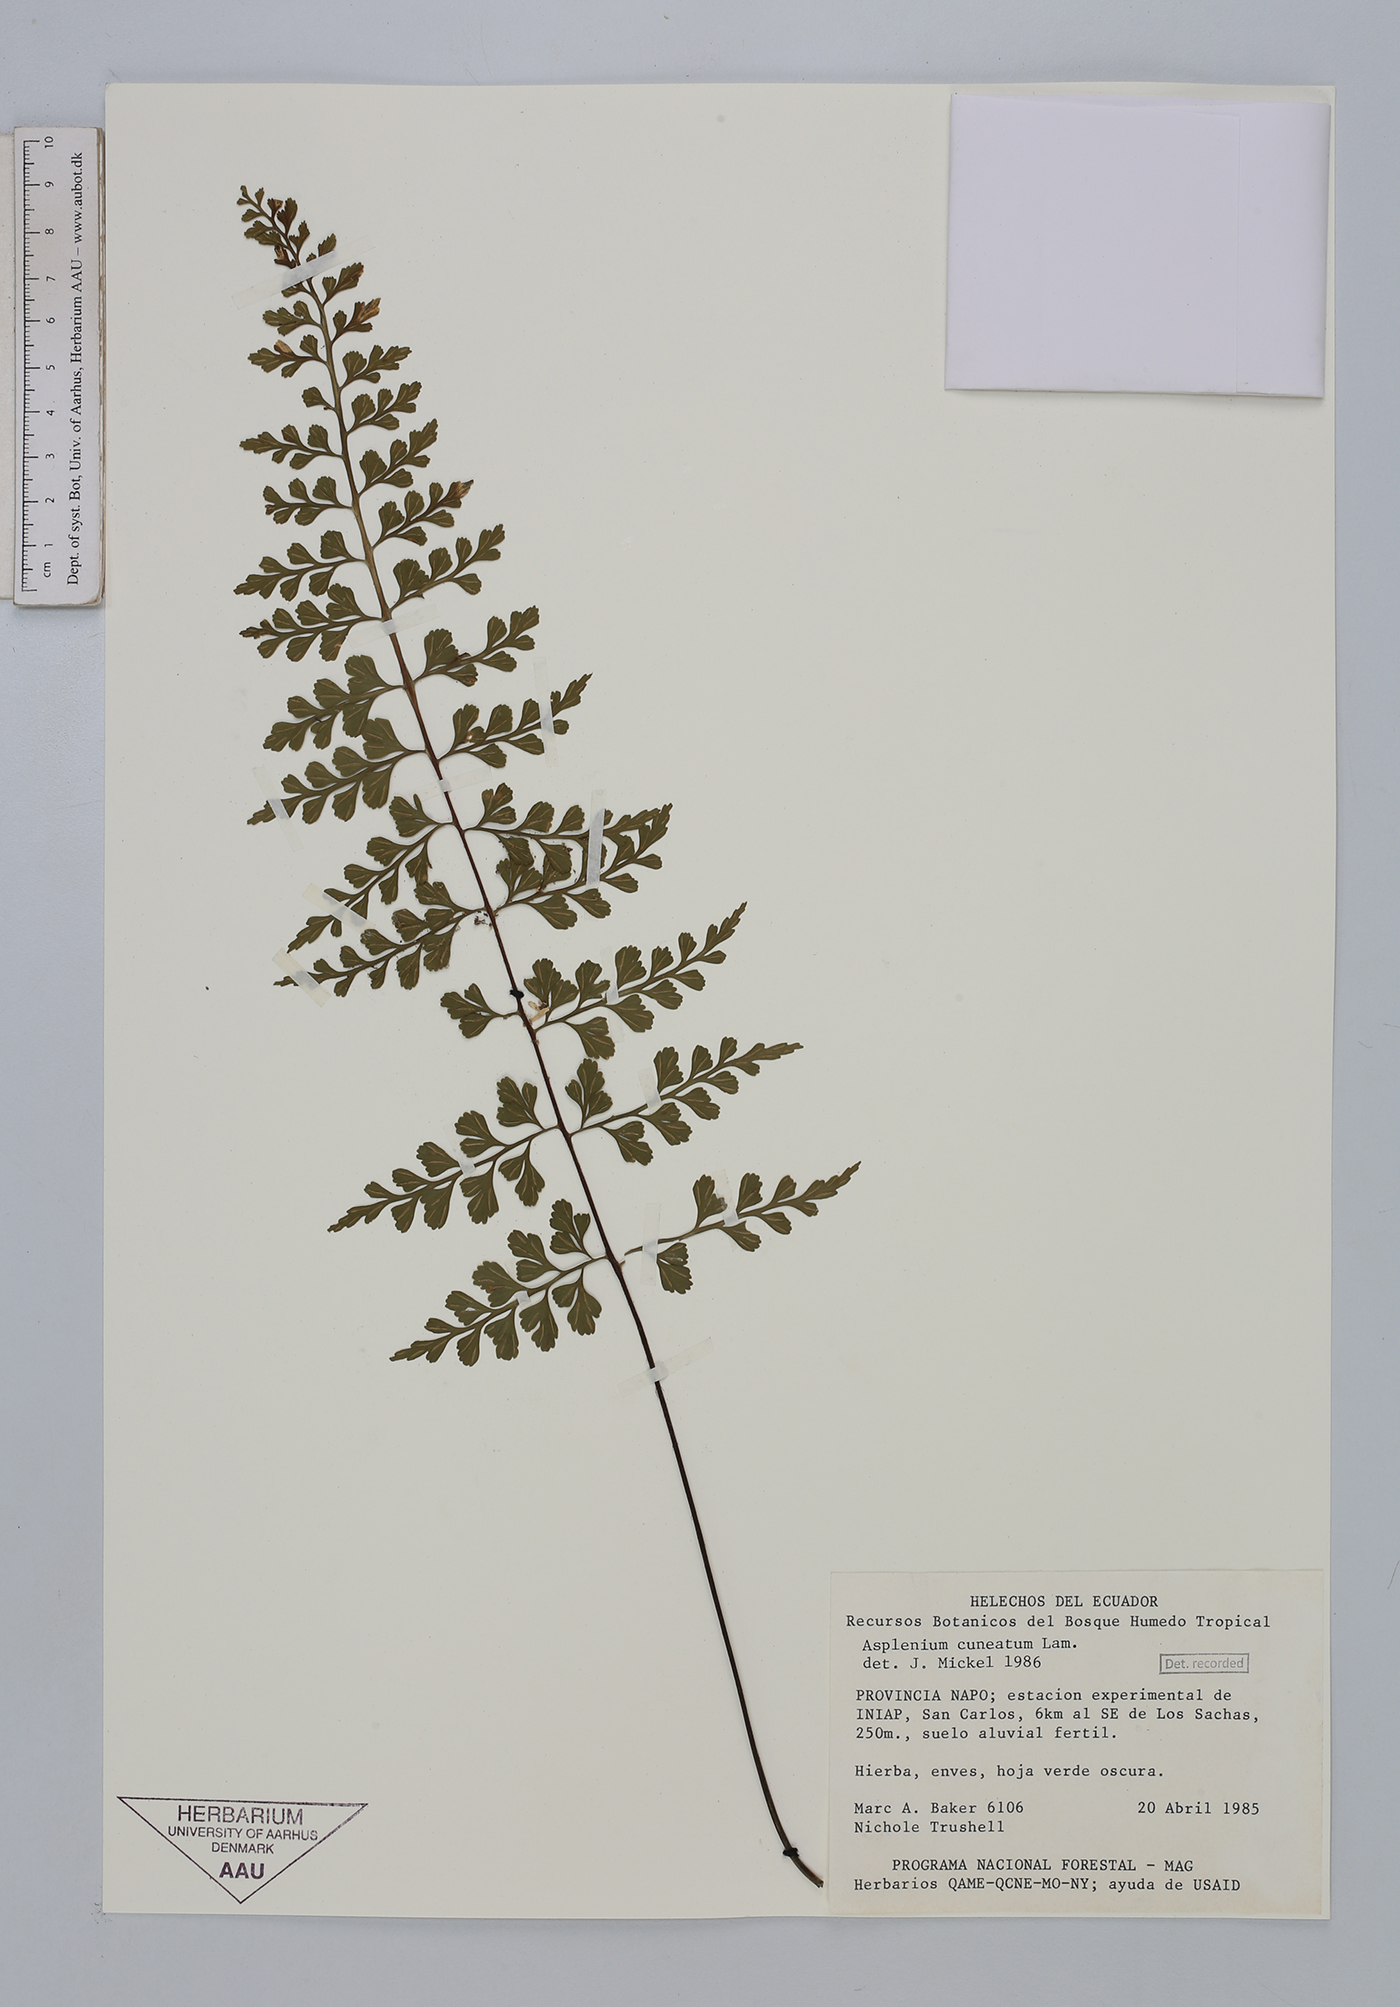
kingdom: Plantae
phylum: Tracheophyta
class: Polypodiopsida
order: Polypodiales
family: Aspleniaceae
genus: Asplenium
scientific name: Asplenium cuneatum
